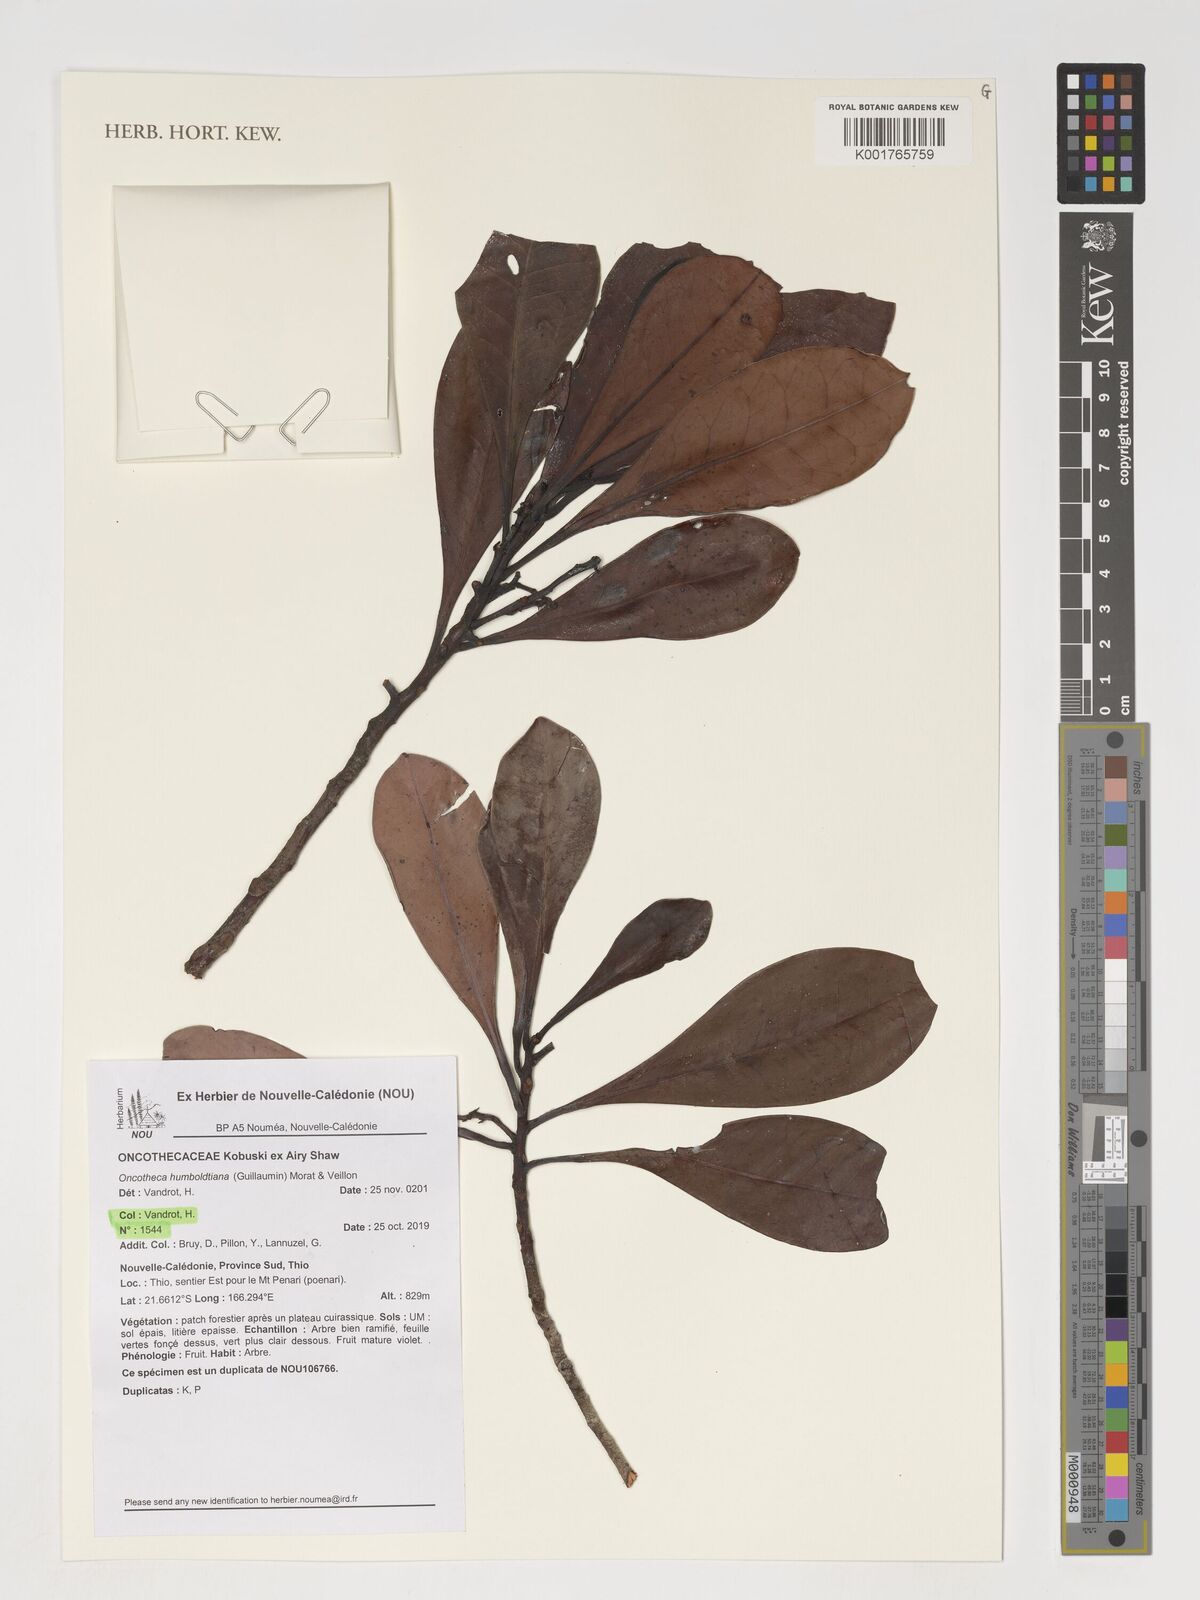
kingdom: Plantae
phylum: Tracheophyta
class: Magnoliopsida
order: Icacinales
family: Oncothecaceae
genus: Oncotheca
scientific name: Oncotheca humboldtiana
